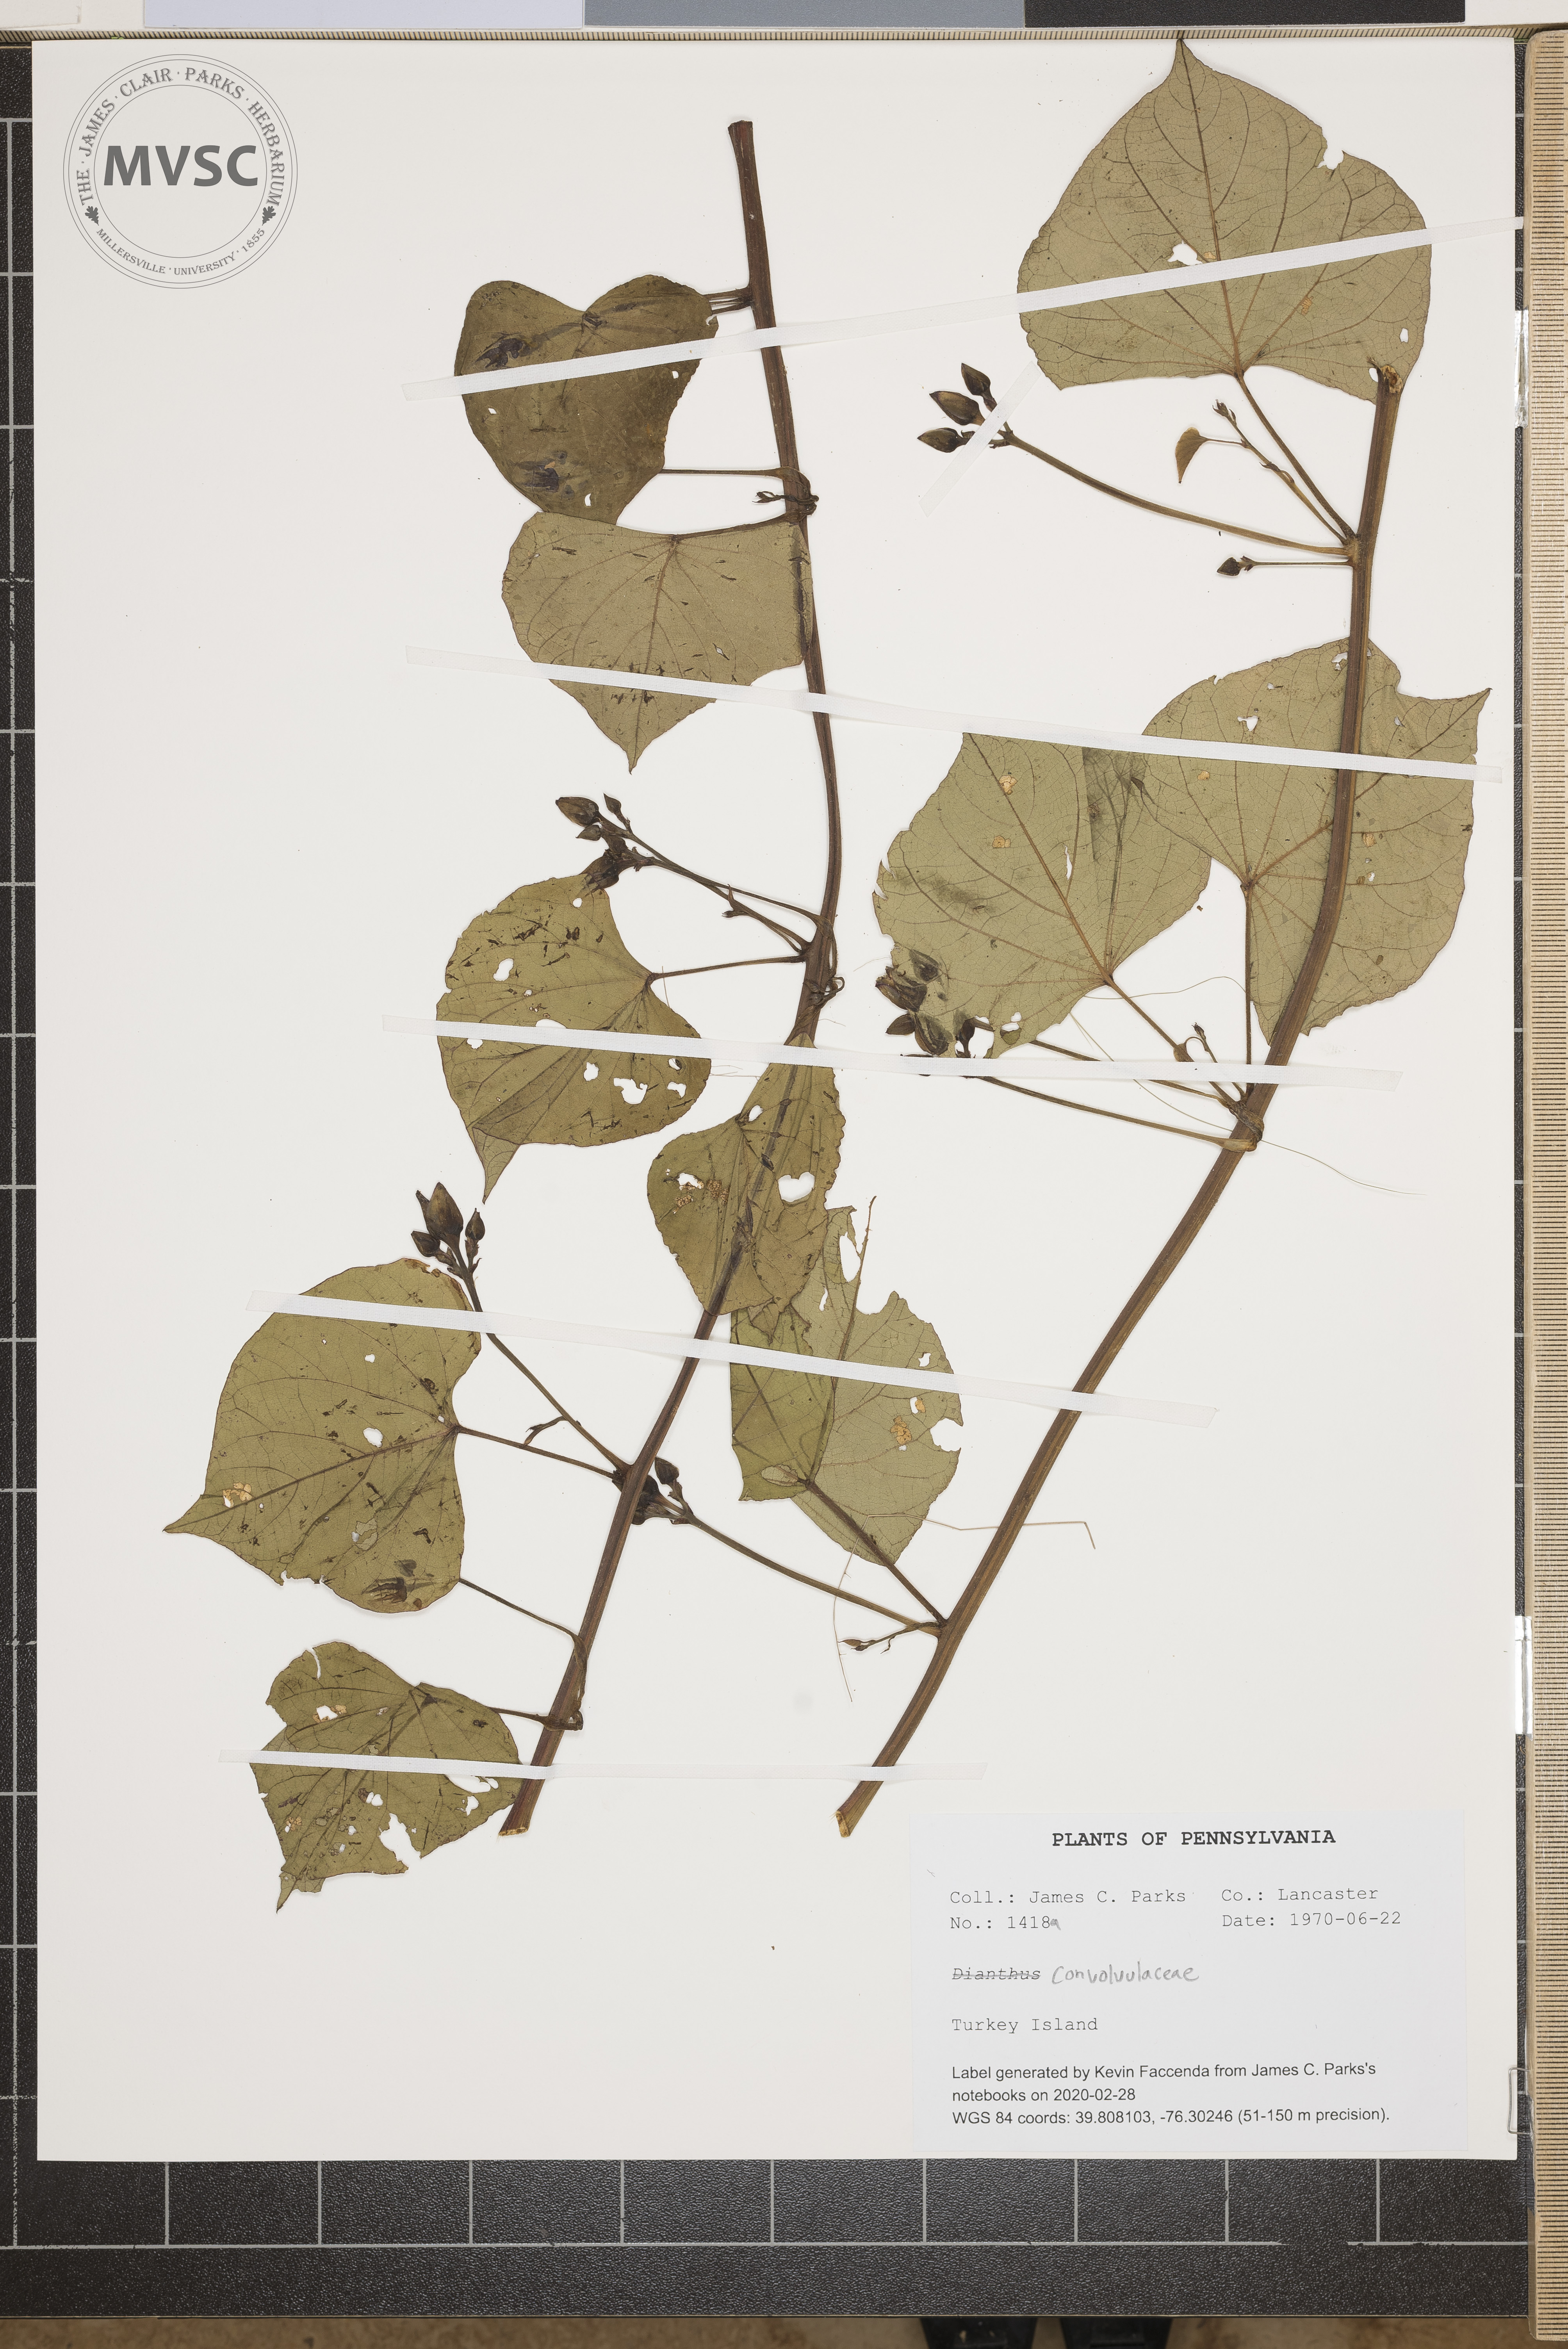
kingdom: Plantae
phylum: Tracheophyta
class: Magnoliopsida
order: Solanales
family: Convolvulaceae
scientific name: Convolvulaceae
